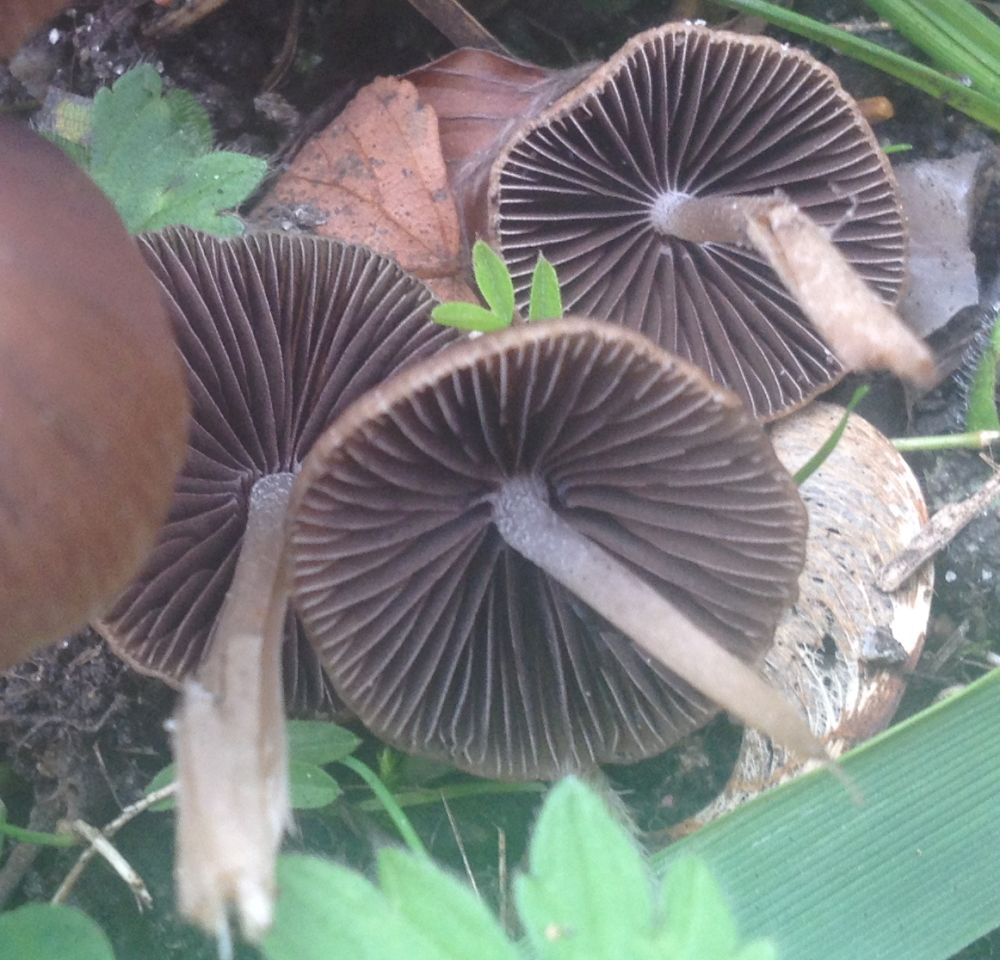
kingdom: Fungi
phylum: Basidiomycota
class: Agaricomycetes
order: Agaricales
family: Psathyrellaceae
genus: Psathyrella
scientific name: Psathyrella
